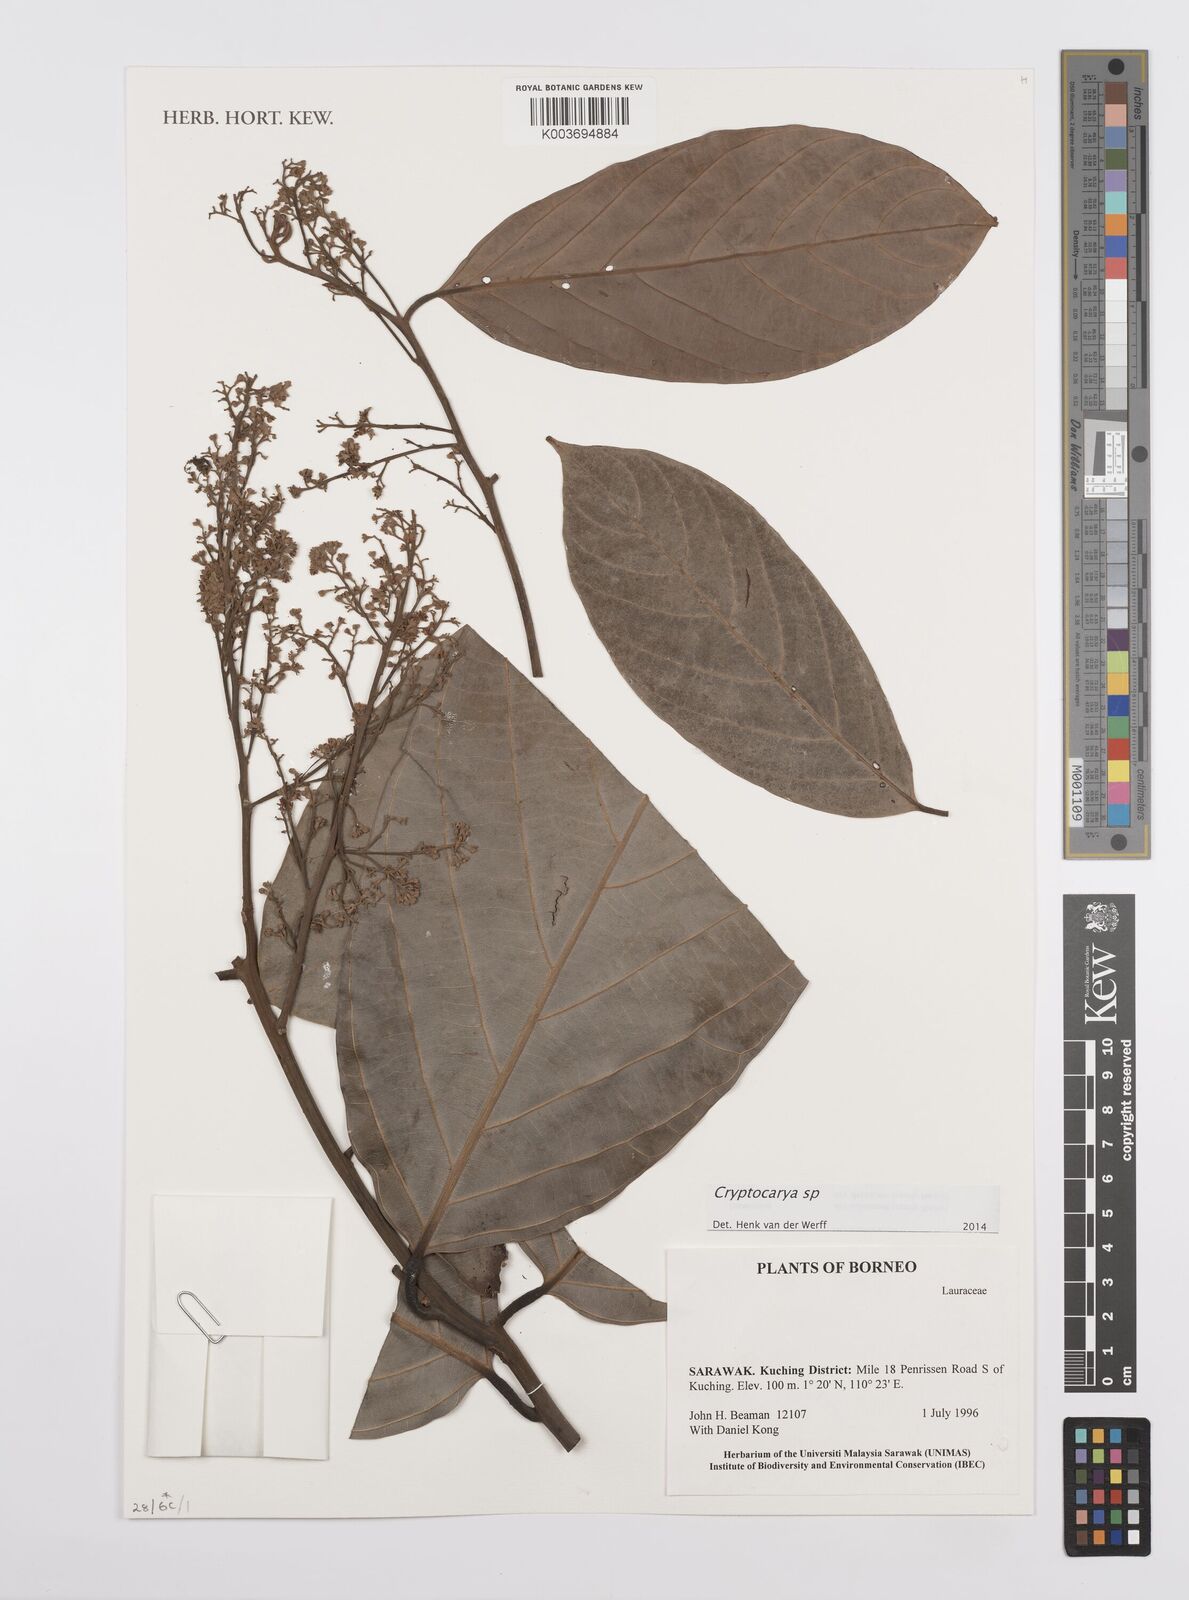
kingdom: Plantae
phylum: Tracheophyta
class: Magnoliopsida
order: Laurales
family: Lauraceae
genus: Cryptocarya
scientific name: Cryptocarya
